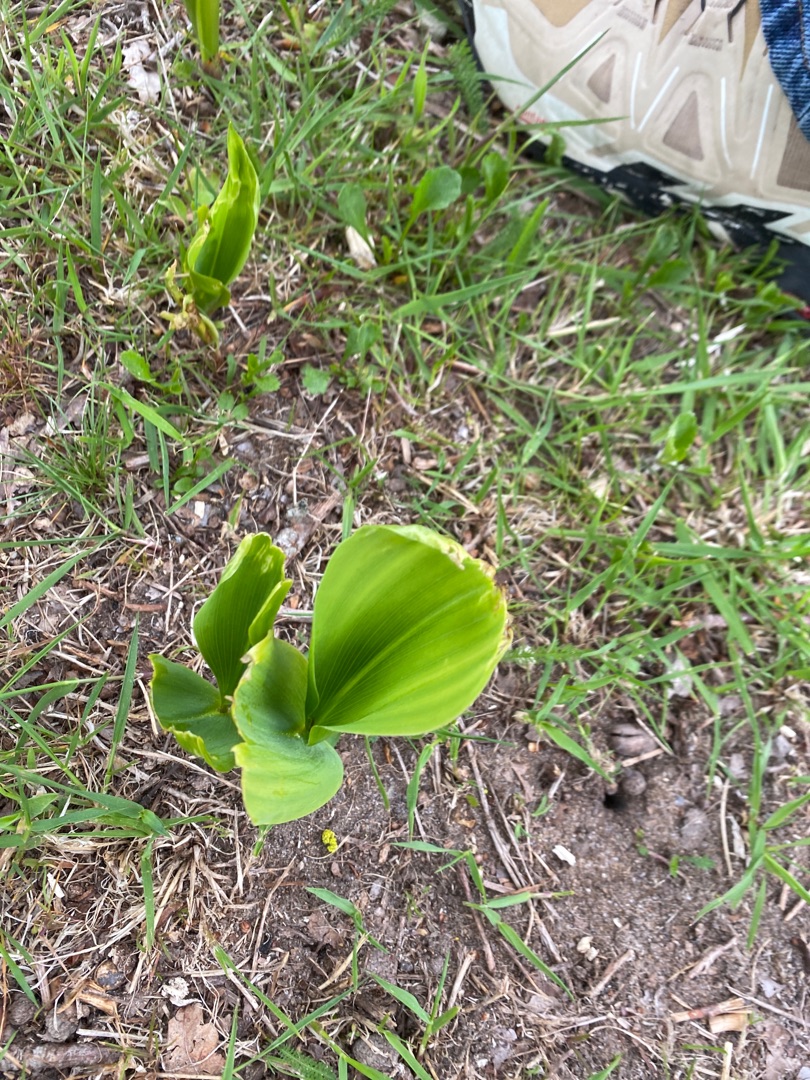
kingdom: Plantae
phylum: Tracheophyta
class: Liliopsida
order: Asparagales
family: Asparagaceae
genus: Convallaria
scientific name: Convallaria majalis
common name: Liljekonval
